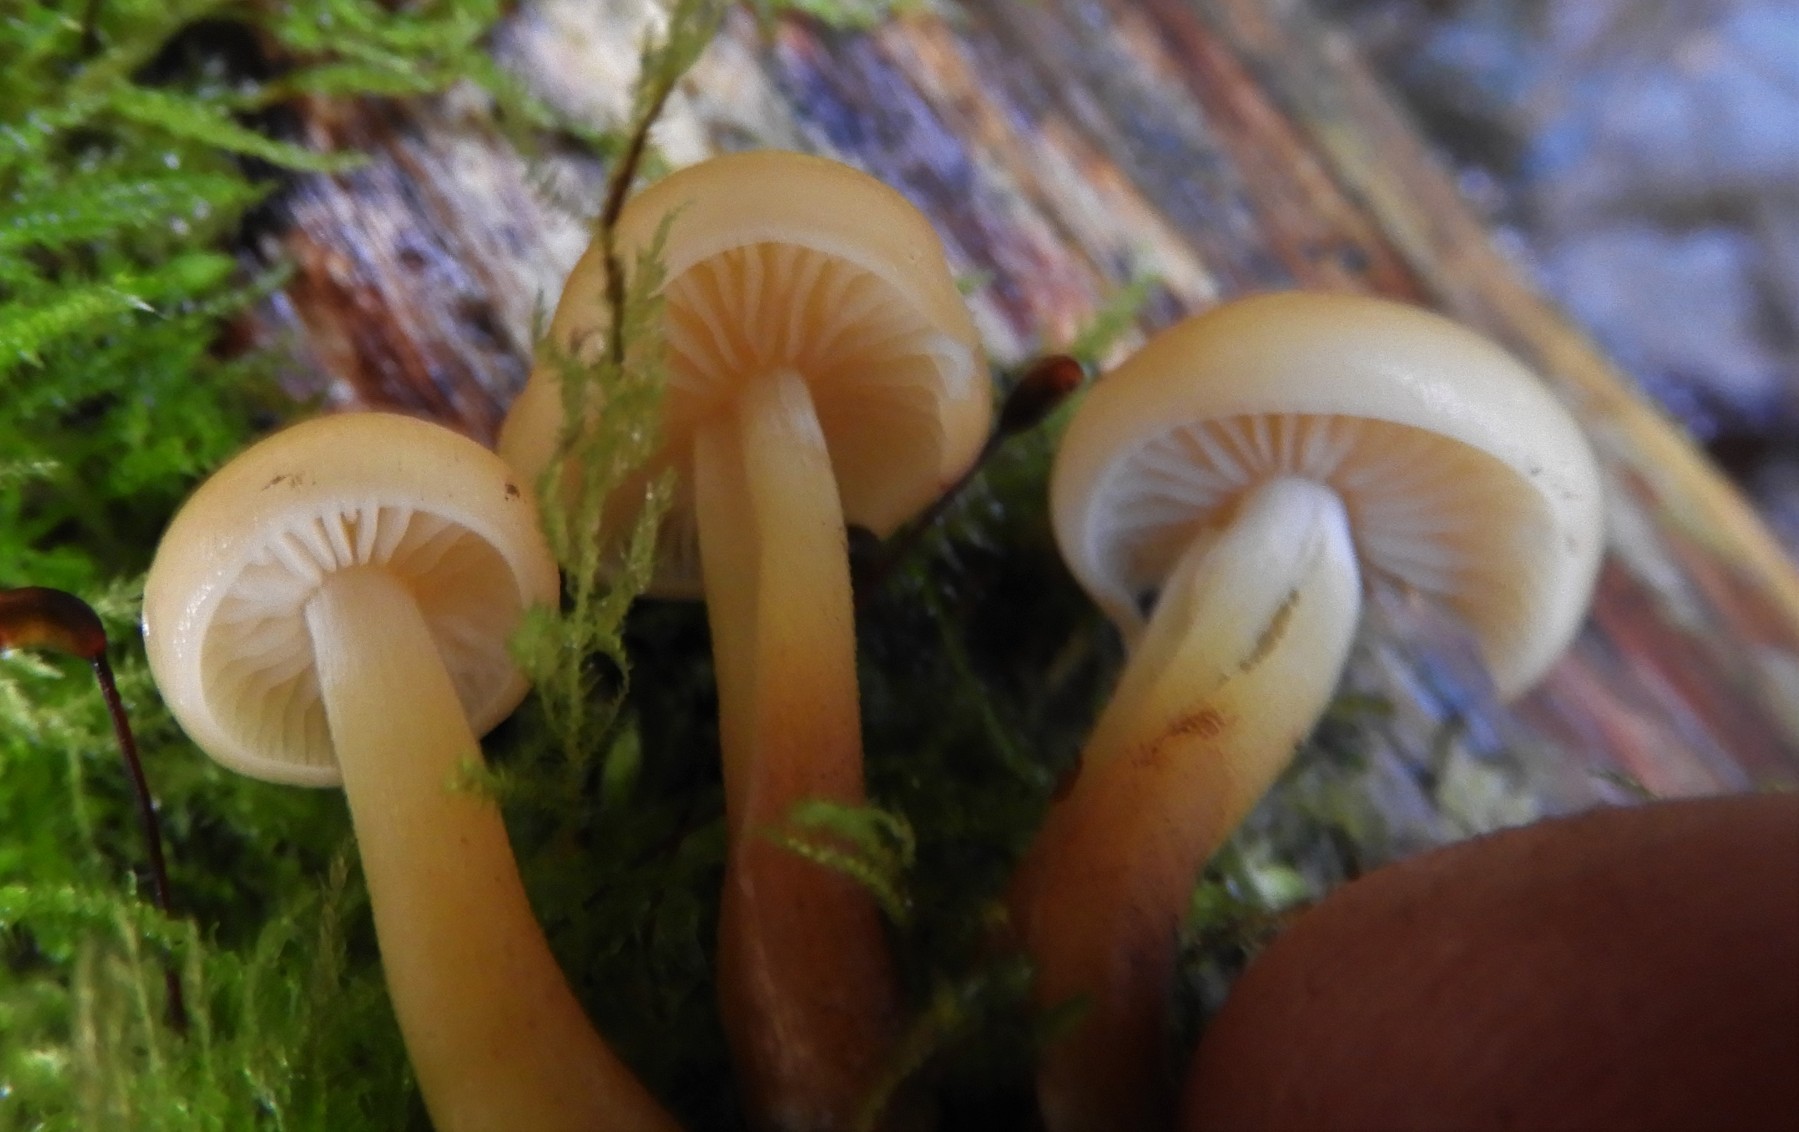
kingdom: Fungi
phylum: Basidiomycota
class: Agaricomycetes
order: Agaricales
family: Physalacriaceae
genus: Flammulina
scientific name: Flammulina
